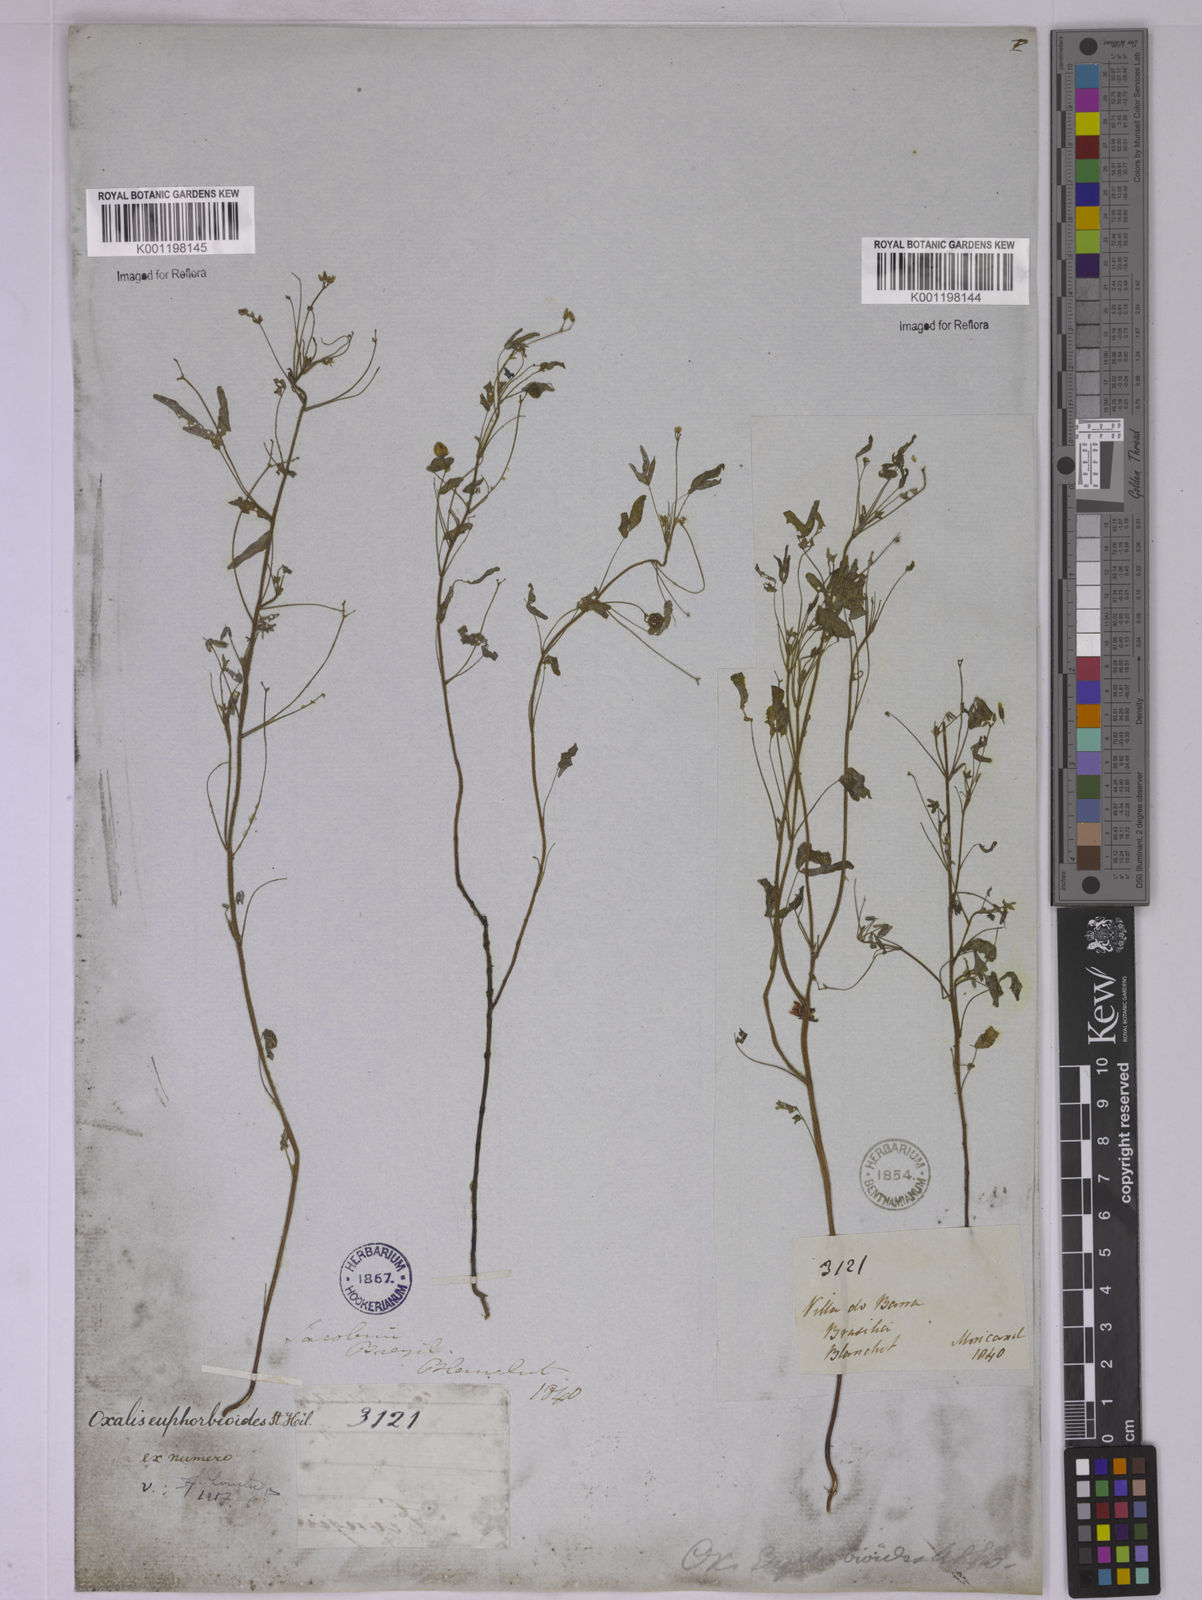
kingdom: Plantae
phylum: Tracheophyta
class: Magnoliopsida
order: Oxalidales
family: Oxalidaceae
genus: Oxalis
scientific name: Oxalis divaricata
